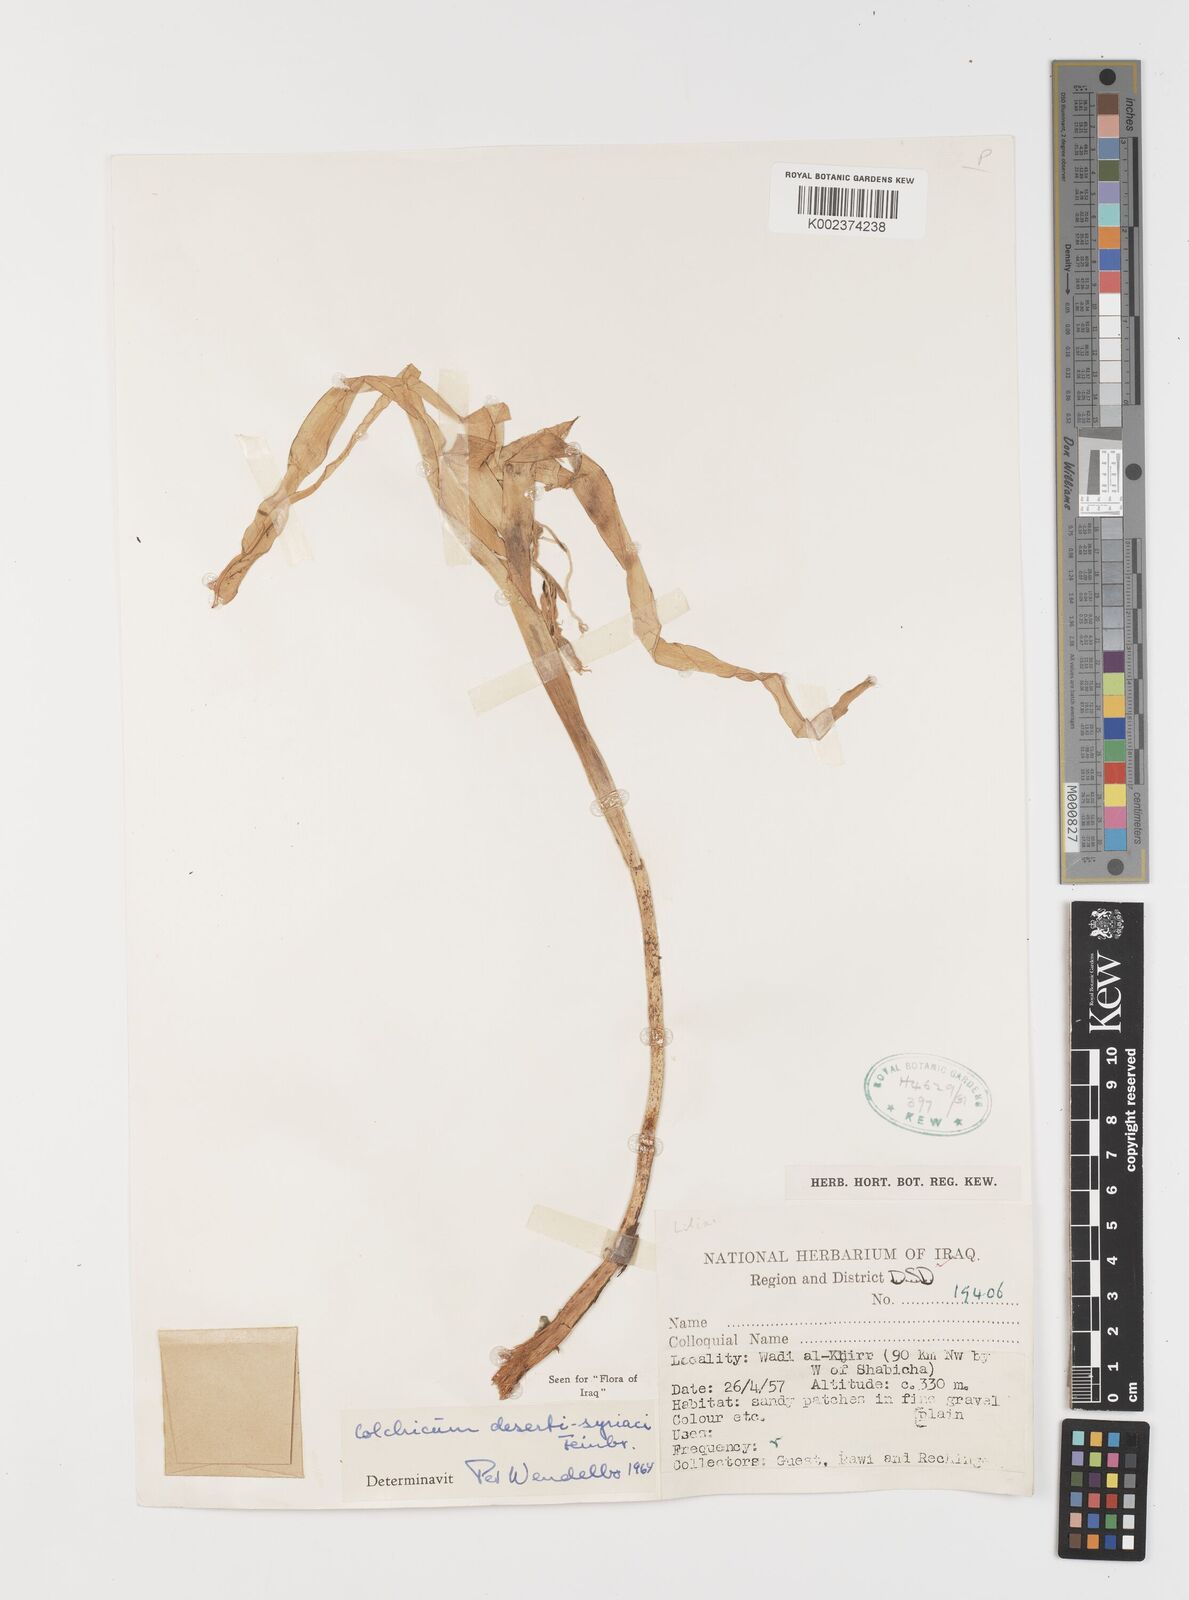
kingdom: Plantae
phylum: Tracheophyta
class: Liliopsida
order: Liliales
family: Colchicaceae
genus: Colchicum
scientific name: Colchicum schimperi
